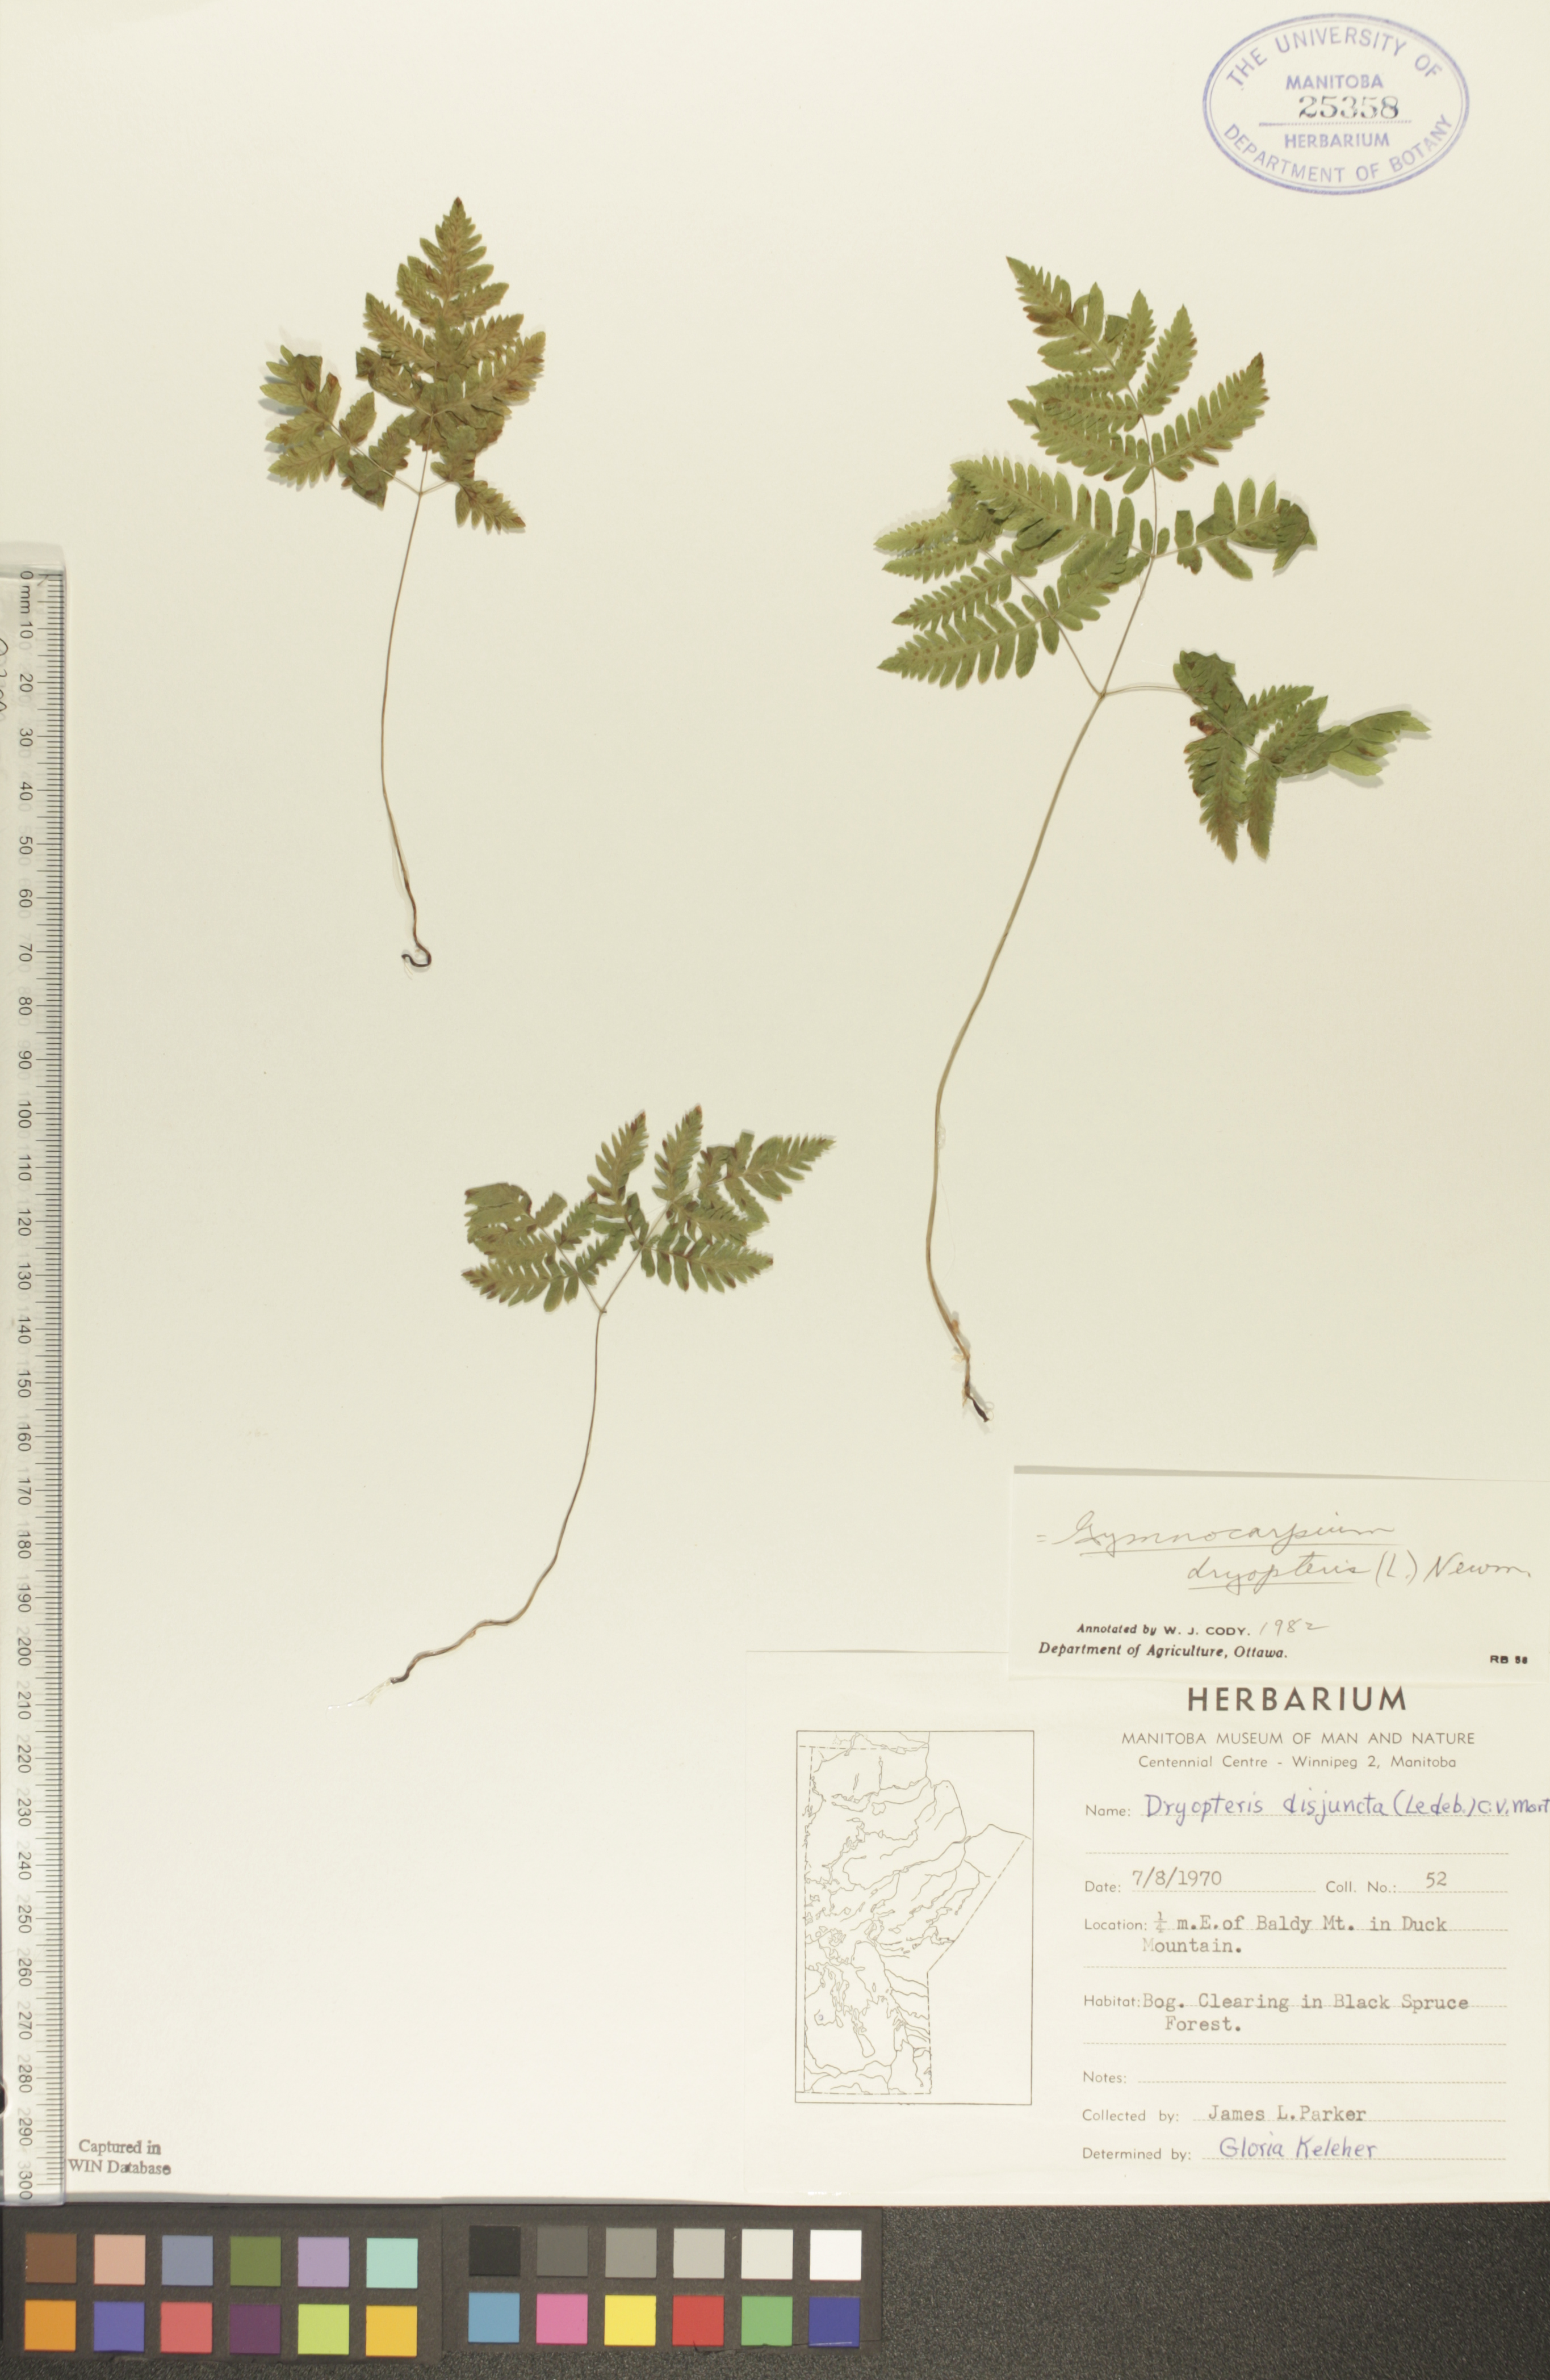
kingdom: Plantae
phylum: Tracheophyta
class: Polypodiopsida
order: Polypodiales
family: Cystopteridaceae
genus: Gymnocarpium
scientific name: Gymnocarpium dryopteris
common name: Oak fern
